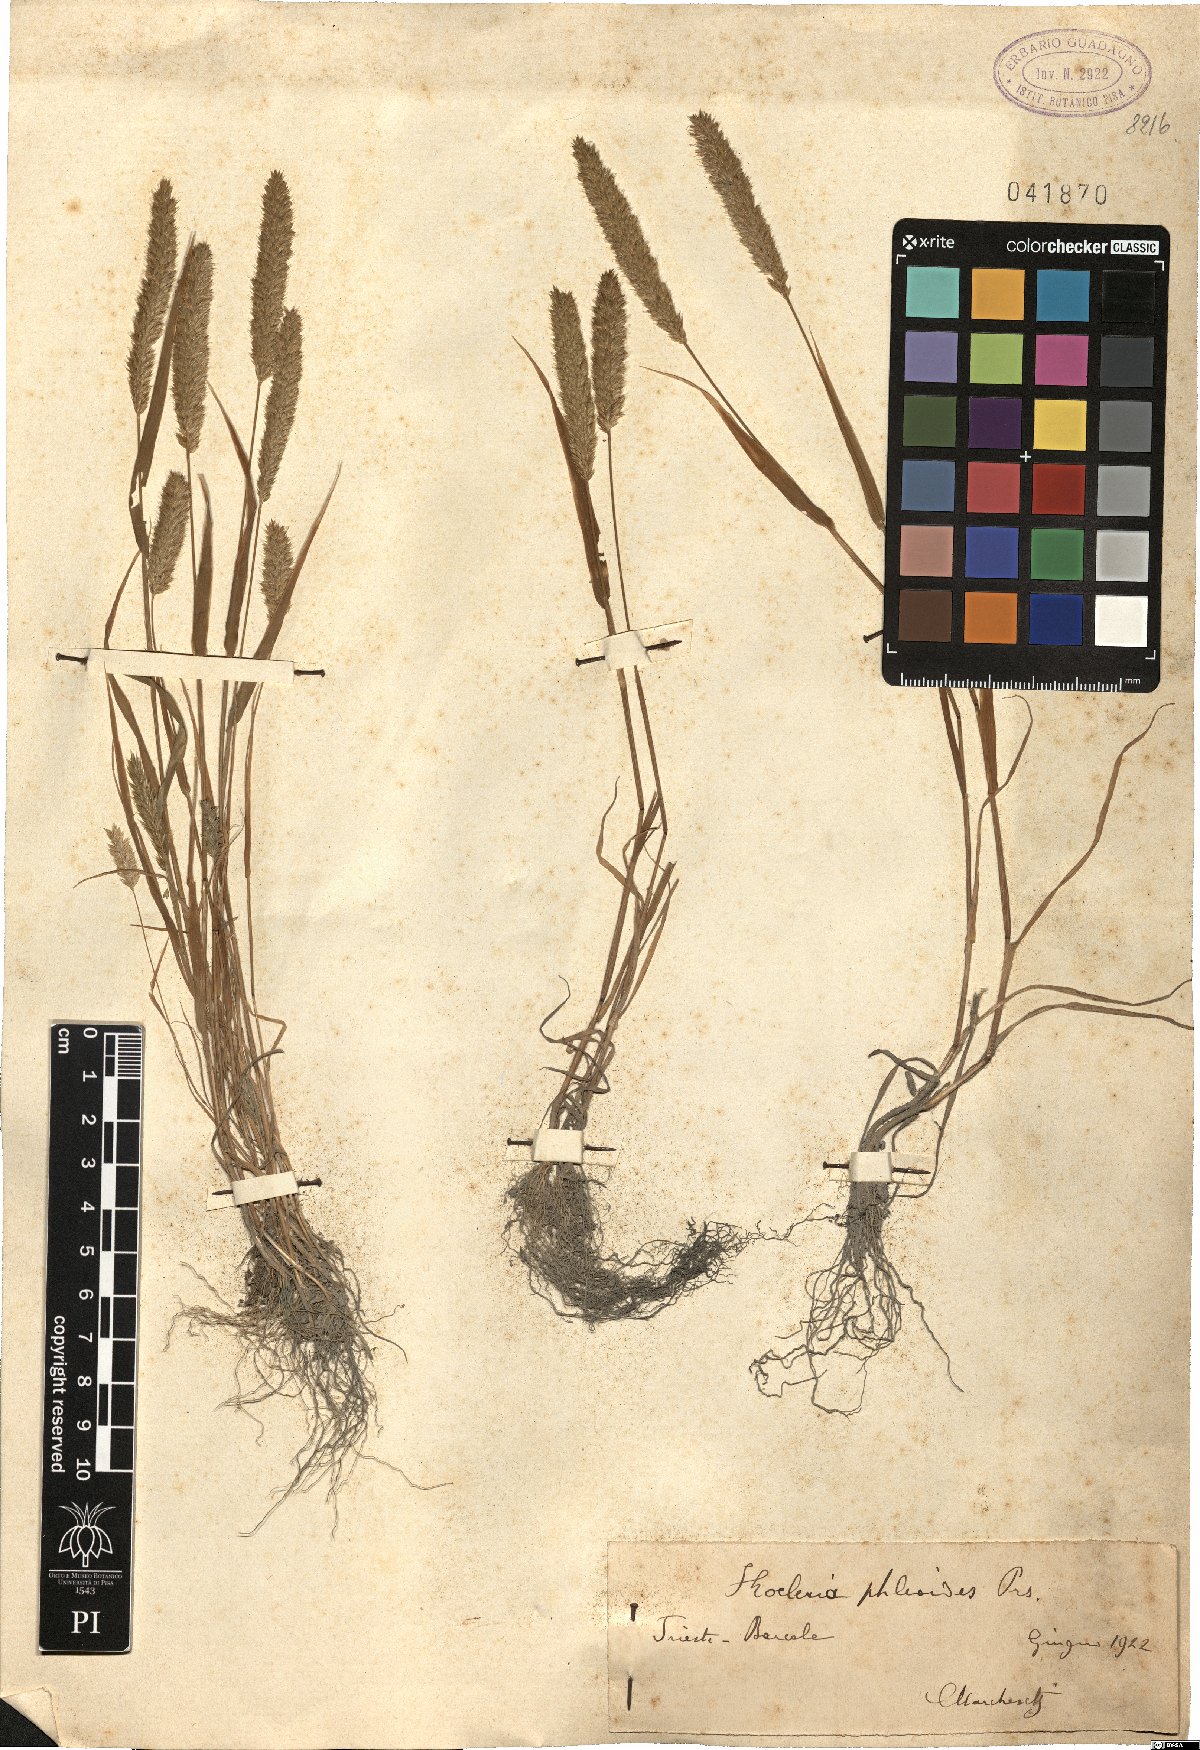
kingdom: Plantae
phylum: Tracheophyta
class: Liliopsida
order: Poales
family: Poaceae
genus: Rostraria
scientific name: Rostraria cristata
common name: Mediterranean hair-grass
